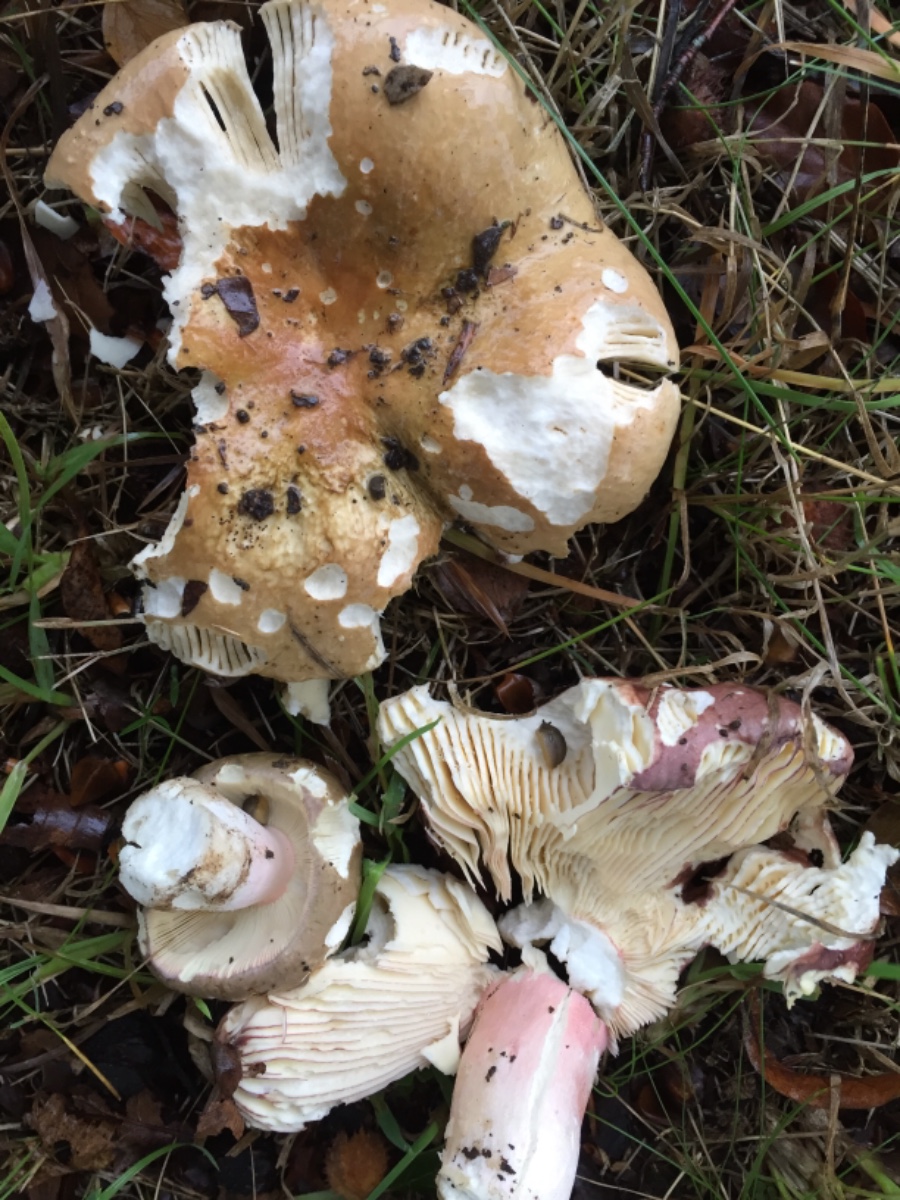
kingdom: Fungi
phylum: Basidiomycota
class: Agaricomycetes
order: Russulales
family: Russulaceae
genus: Russula
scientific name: Russula olivacea
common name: stor skørhat
